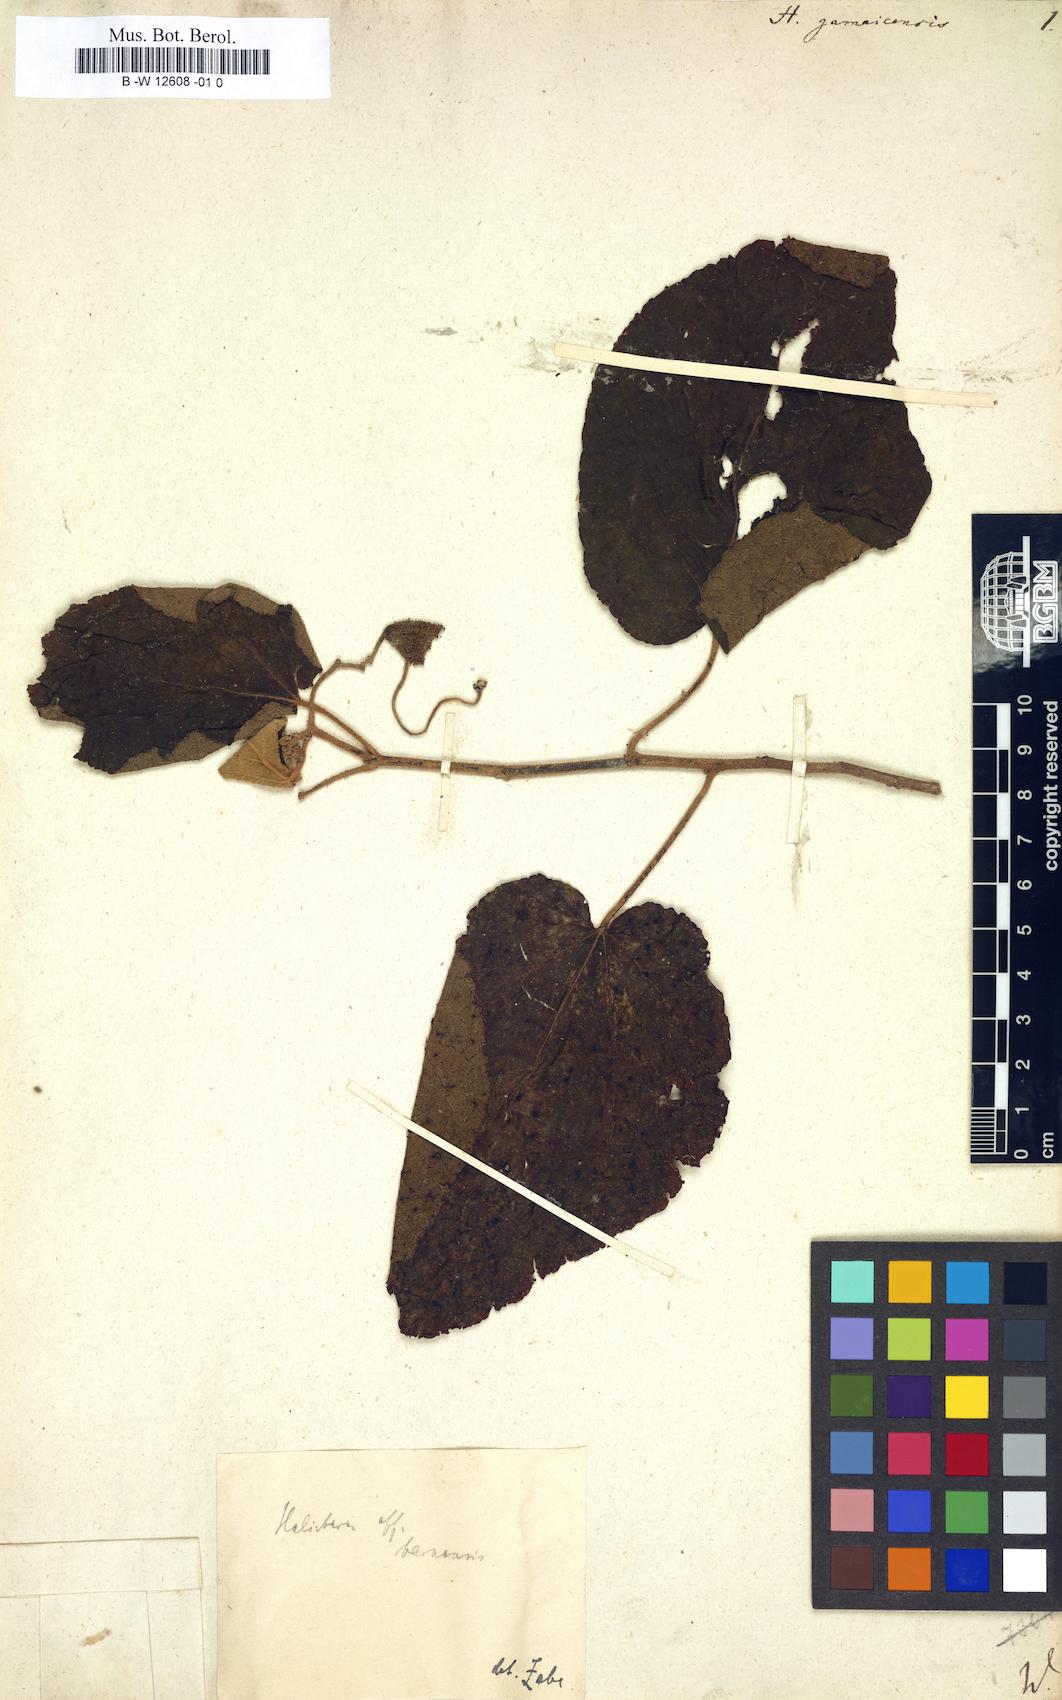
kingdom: Plantae
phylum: Tracheophyta
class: Magnoliopsida
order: Malvales
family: Malvaceae
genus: Helicteres
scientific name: Helicteres jamaicensis
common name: Cowbush
